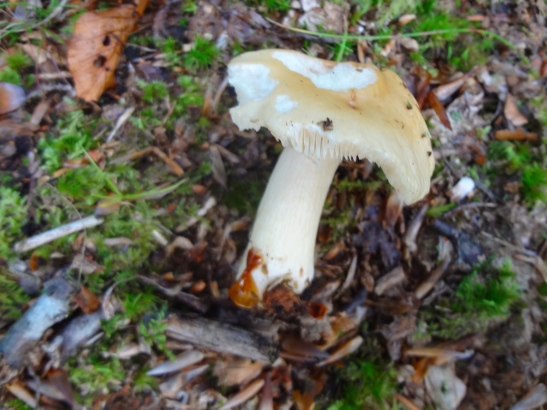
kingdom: Fungi
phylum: Basidiomycota
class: Agaricomycetes
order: Russulales
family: Russulaceae
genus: Russula
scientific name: Russula fellea
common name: galde-skørhat
